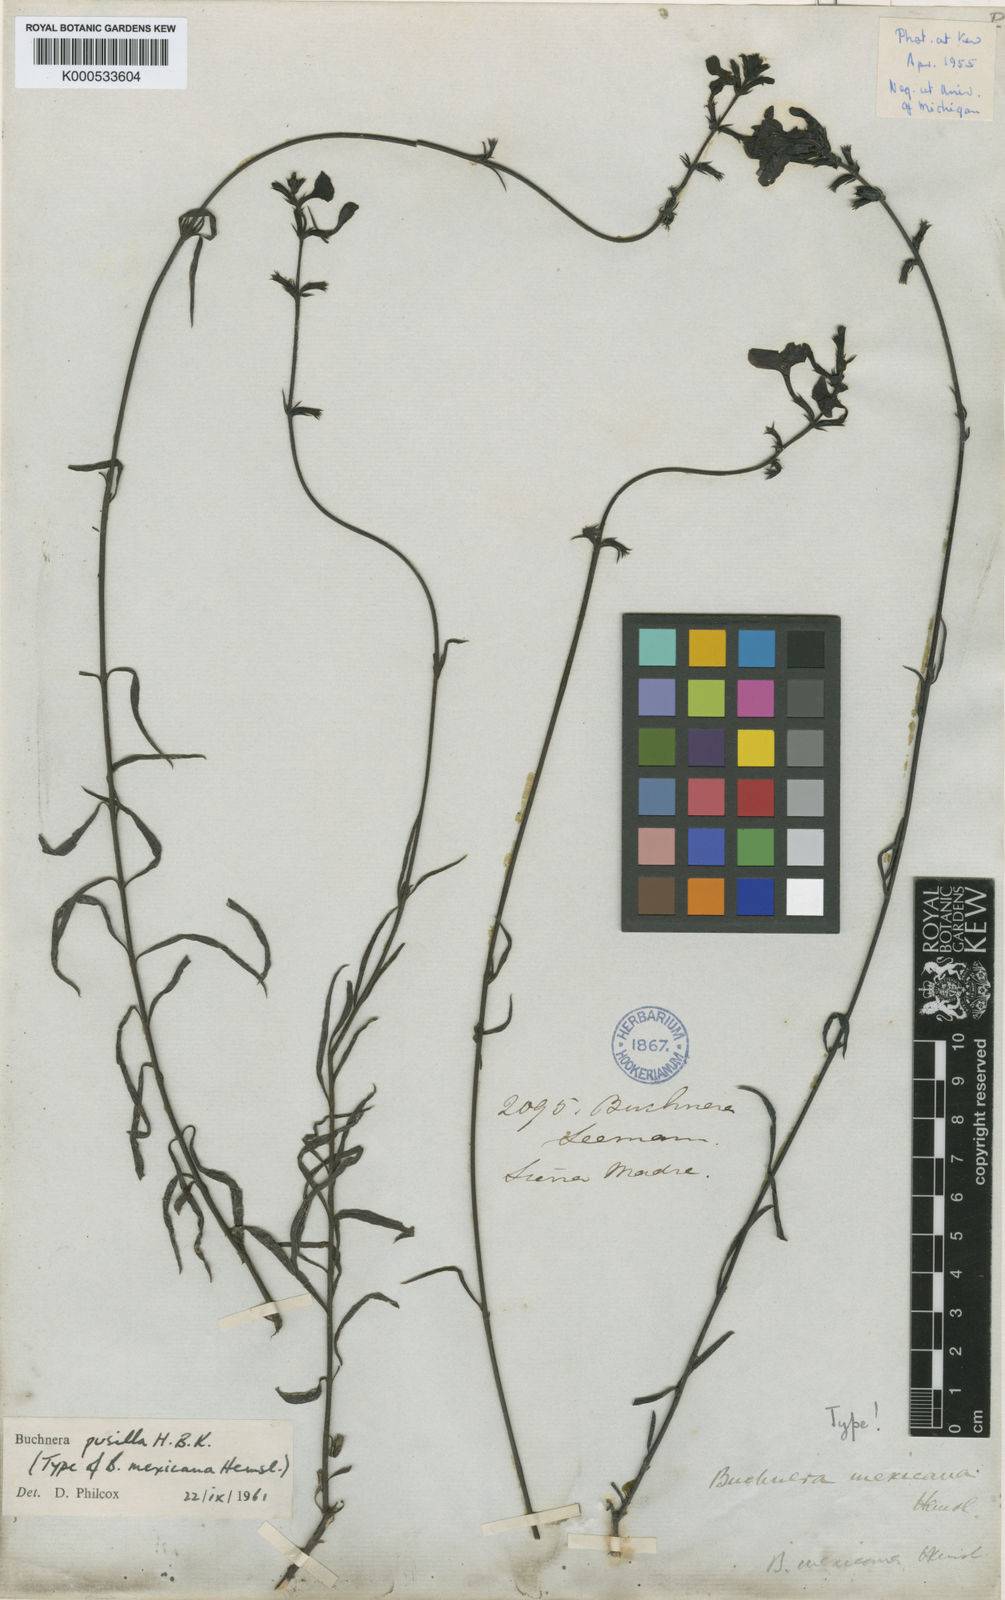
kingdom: Plantae
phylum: Tracheophyta
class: Magnoliopsida
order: Lamiales
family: Orobanchaceae
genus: Buchnera
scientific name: Buchnera pusilla
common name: Pygmy bluehearts
